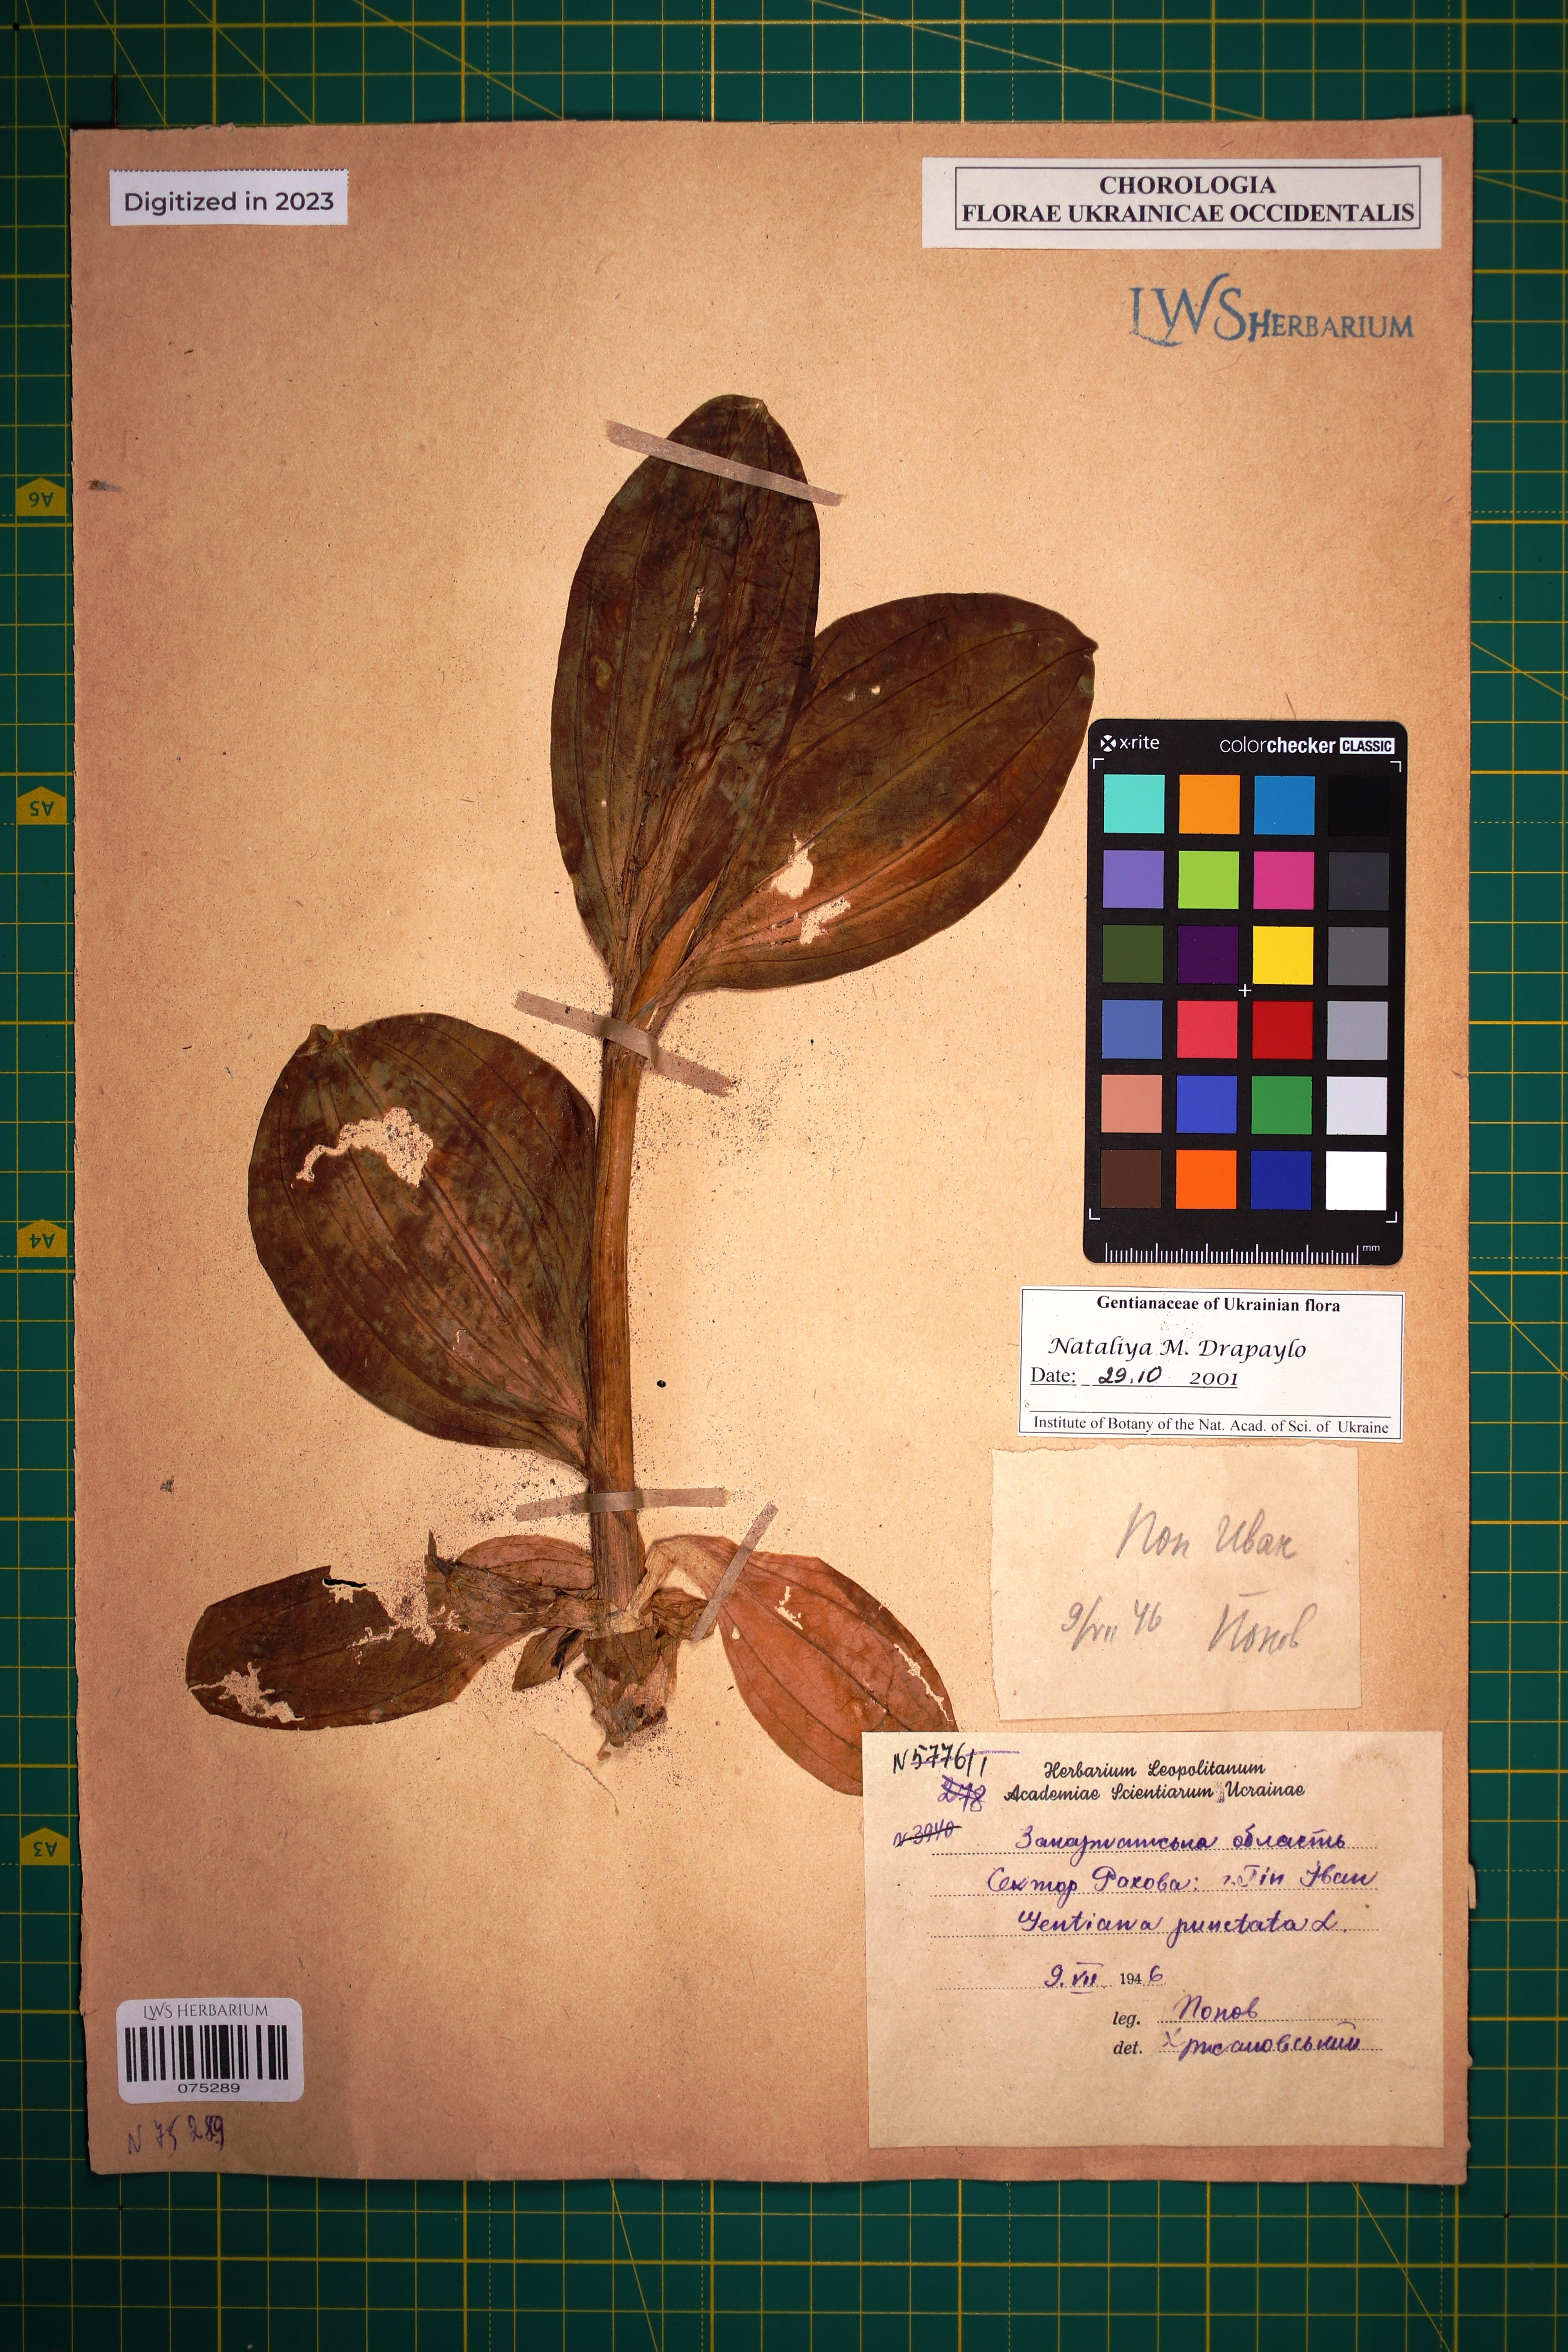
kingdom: Plantae
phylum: Tracheophyta
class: Magnoliopsida
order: Gentianales
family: Gentianaceae
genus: Gentiana
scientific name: Gentiana punctata
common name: Spotted gentian
